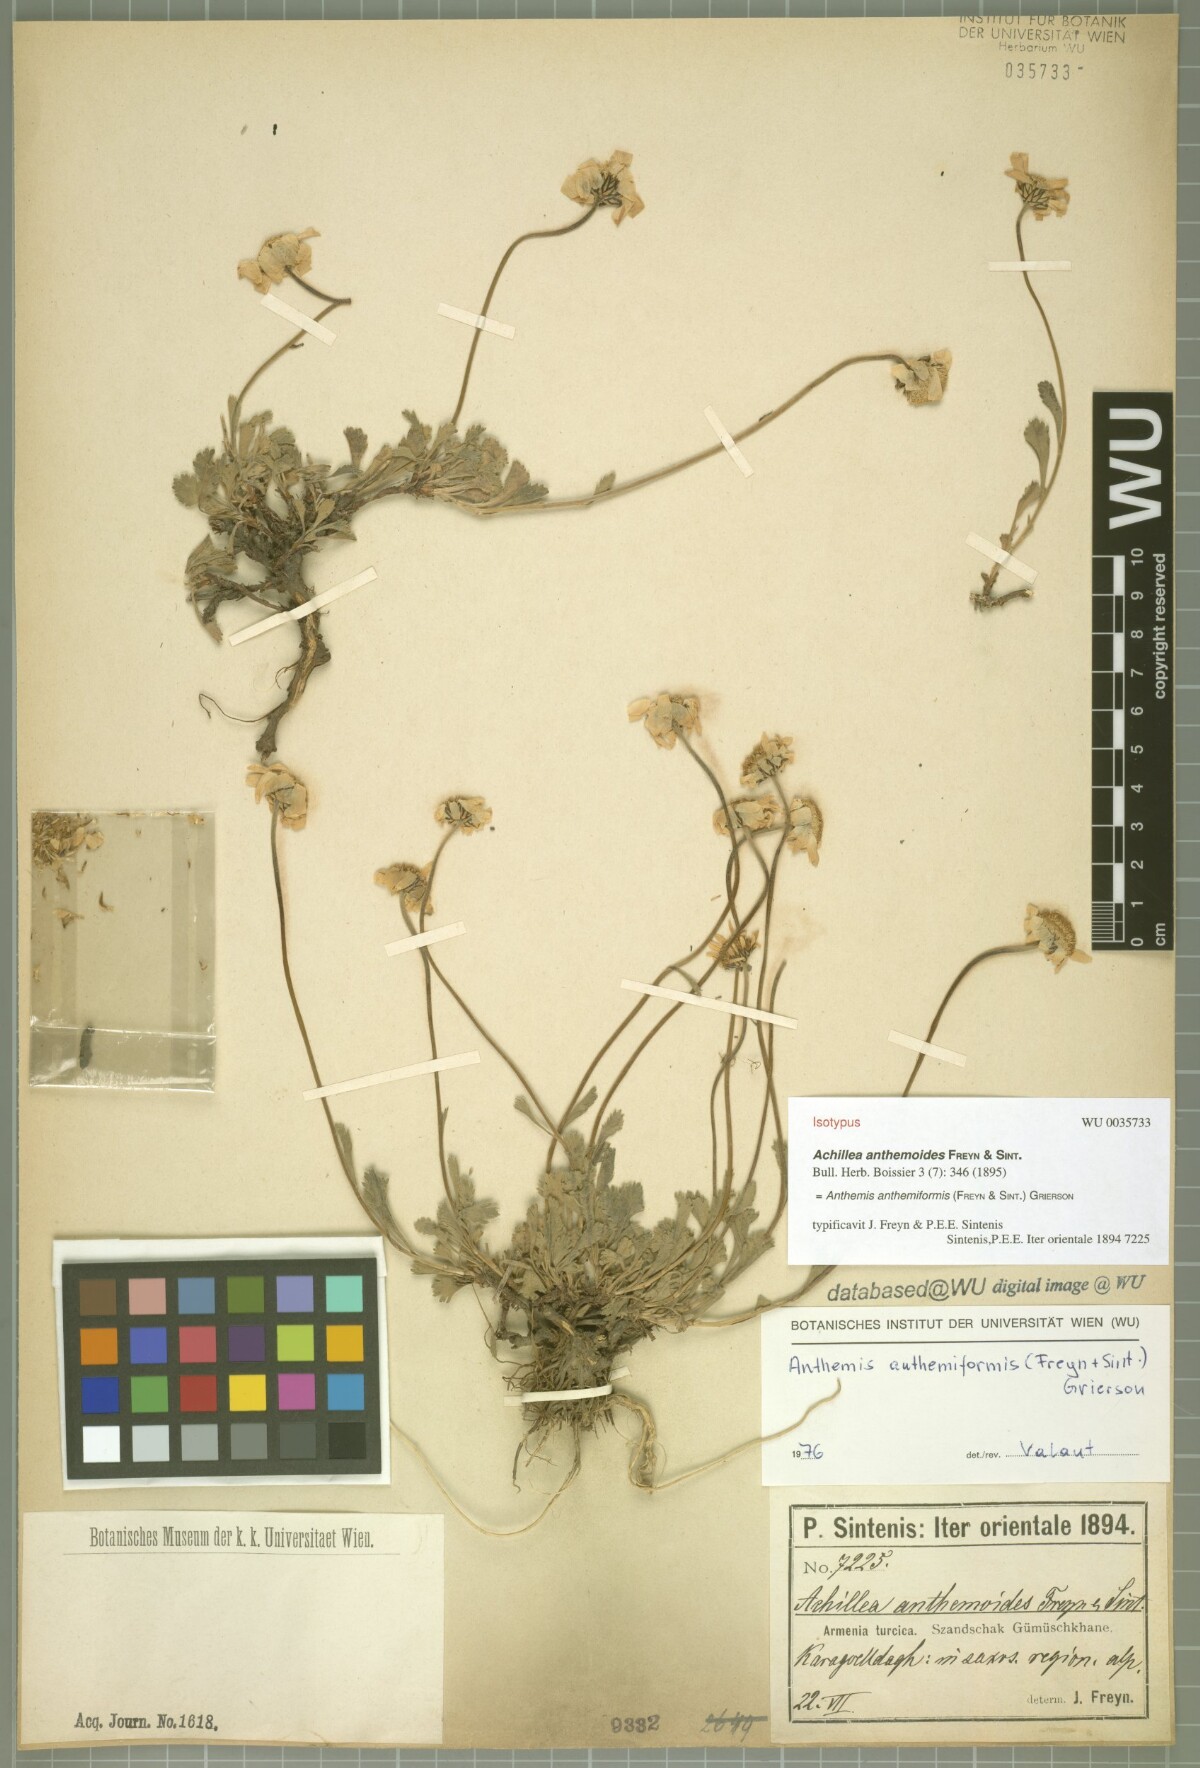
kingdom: Plantae
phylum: Tracheophyta
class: Magnoliopsida
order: Asterales
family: Asteraceae
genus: Anthemis
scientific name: Anthemis anthemiformis
